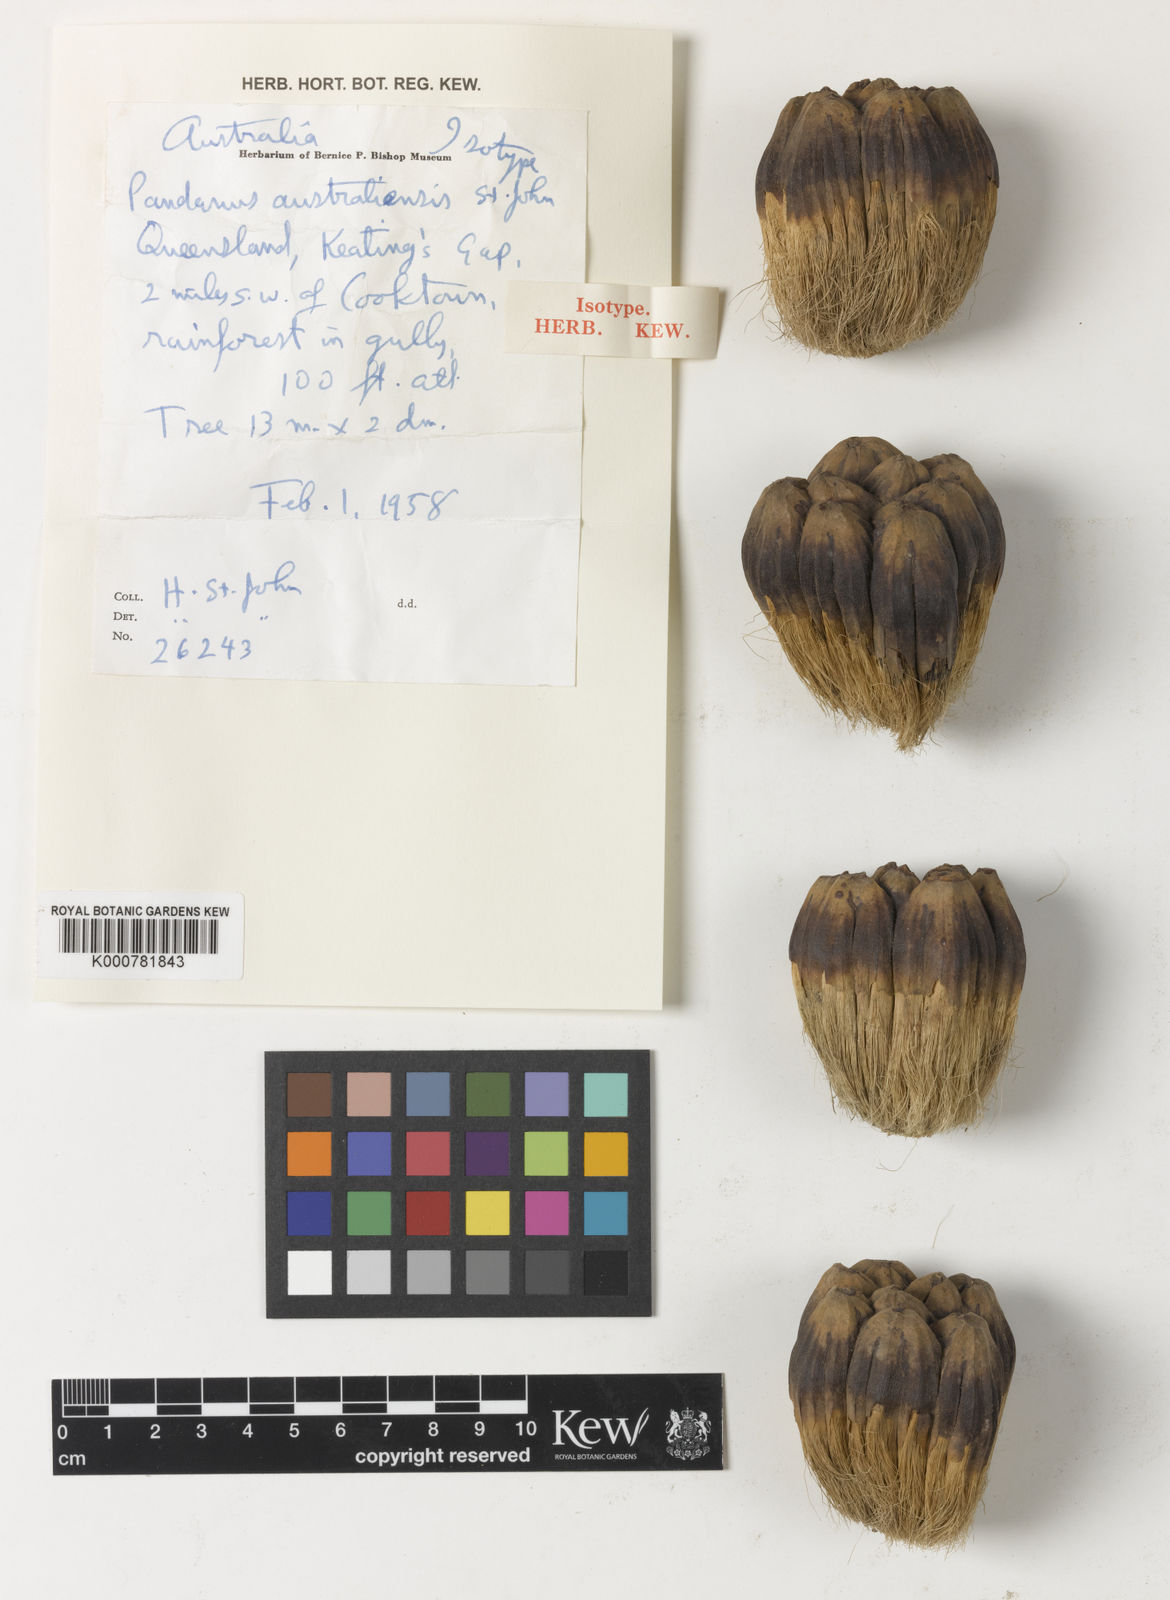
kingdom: Plantae
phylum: Tracheophyta
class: Liliopsida
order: Pandanales
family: Pandanaceae
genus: Pandanus
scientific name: Pandanus cookii
